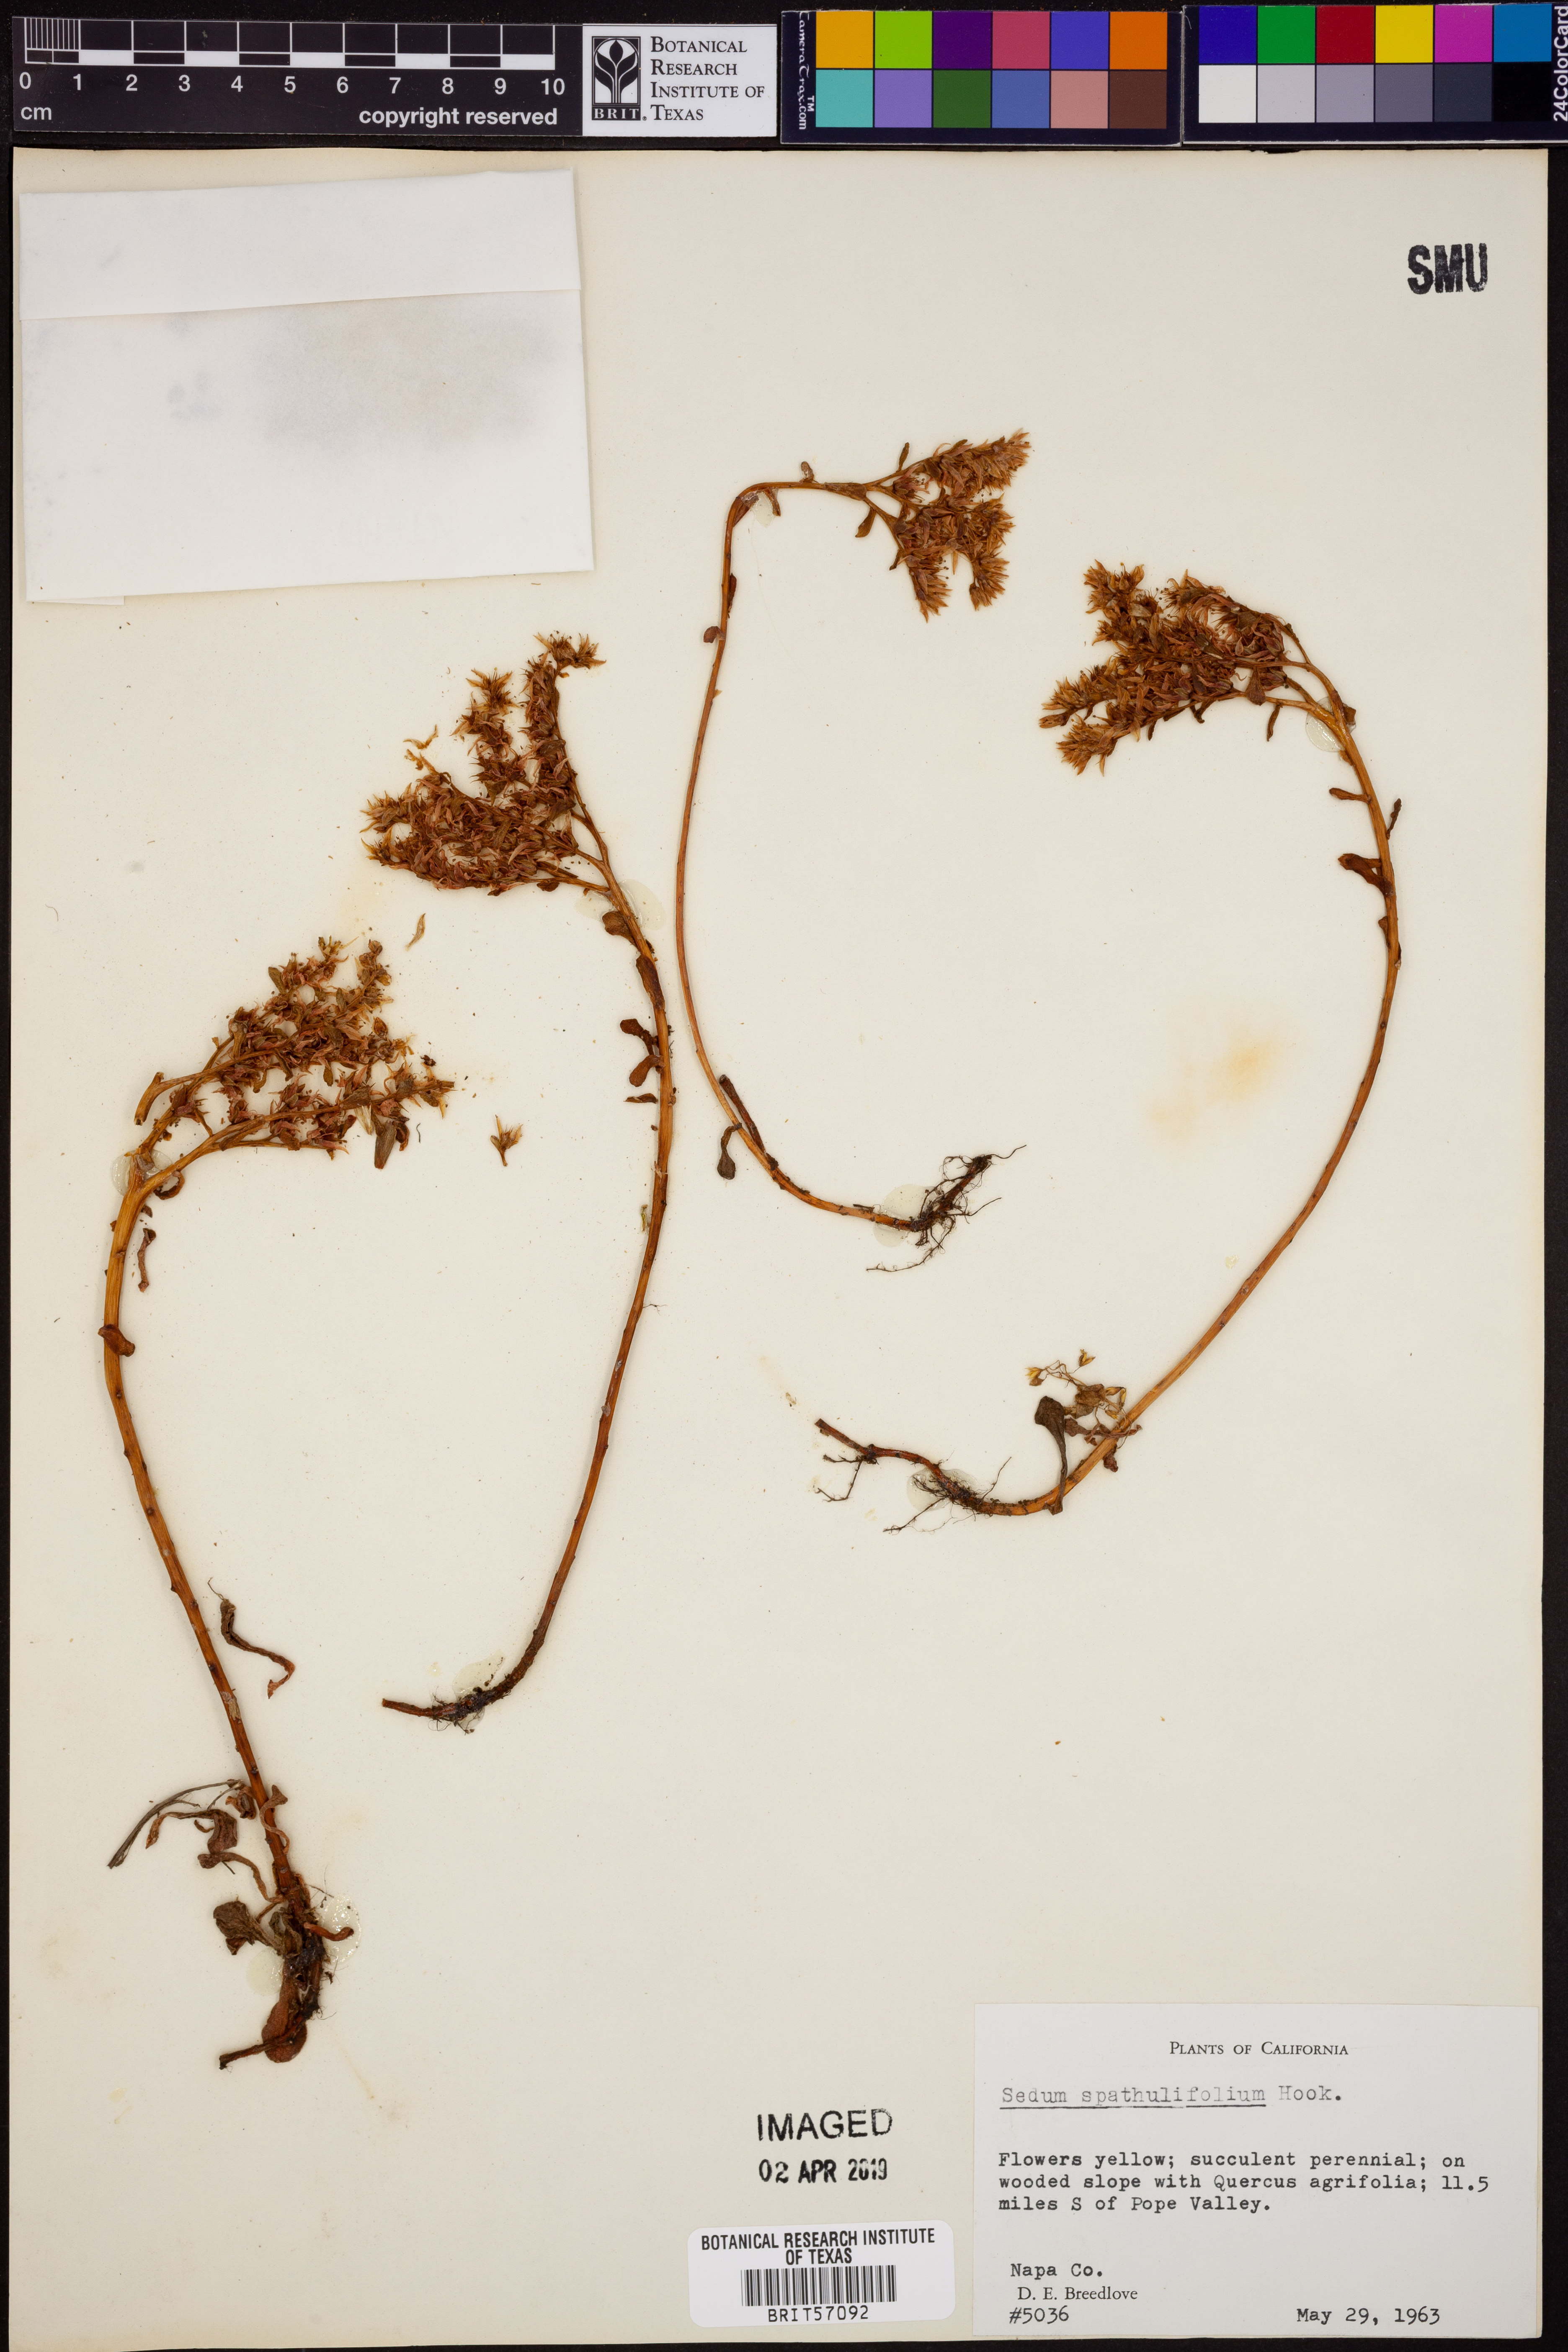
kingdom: Plantae
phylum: Tracheophyta
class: Magnoliopsida
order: Saxifragales
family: Crassulaceae
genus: Sedum
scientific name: Sedum spathulifolium
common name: Colorado stonecrop
